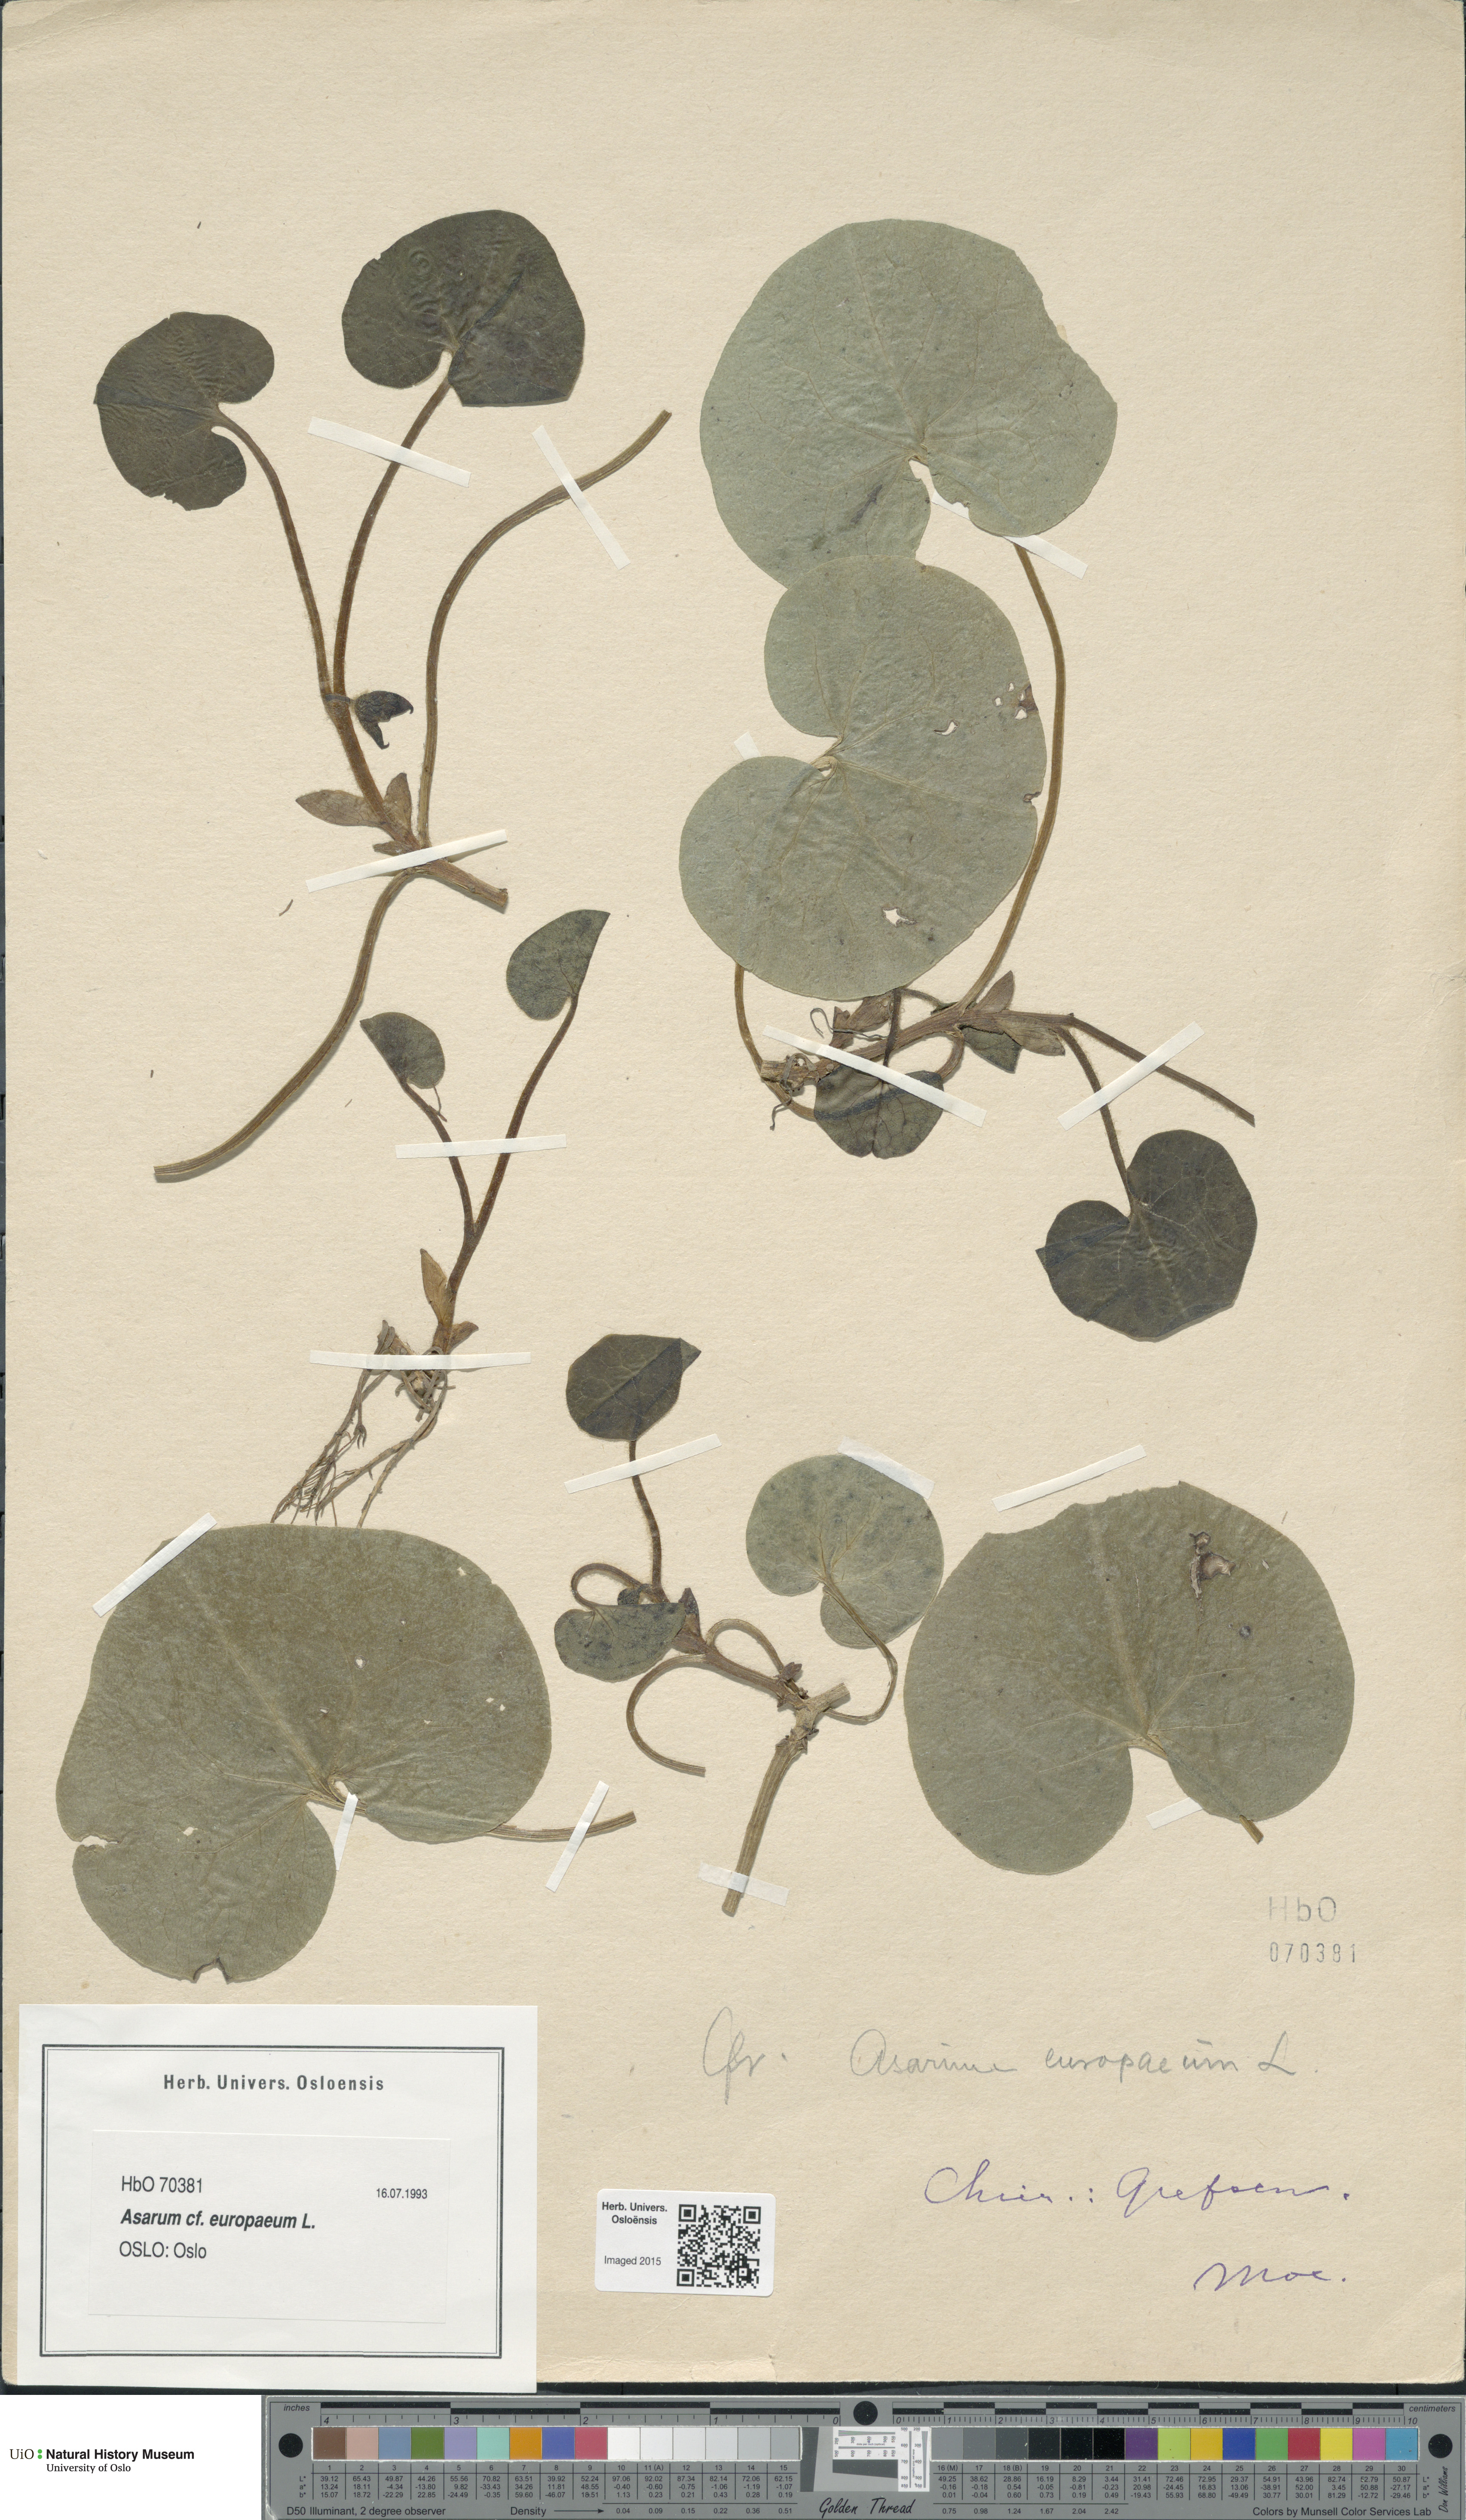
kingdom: Plantae
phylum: Tracheophyta
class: Magnoliopsida
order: Piperales
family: Aristolochiaceae
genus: Asarum
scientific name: Asarum europaeum
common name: Asarabacca
